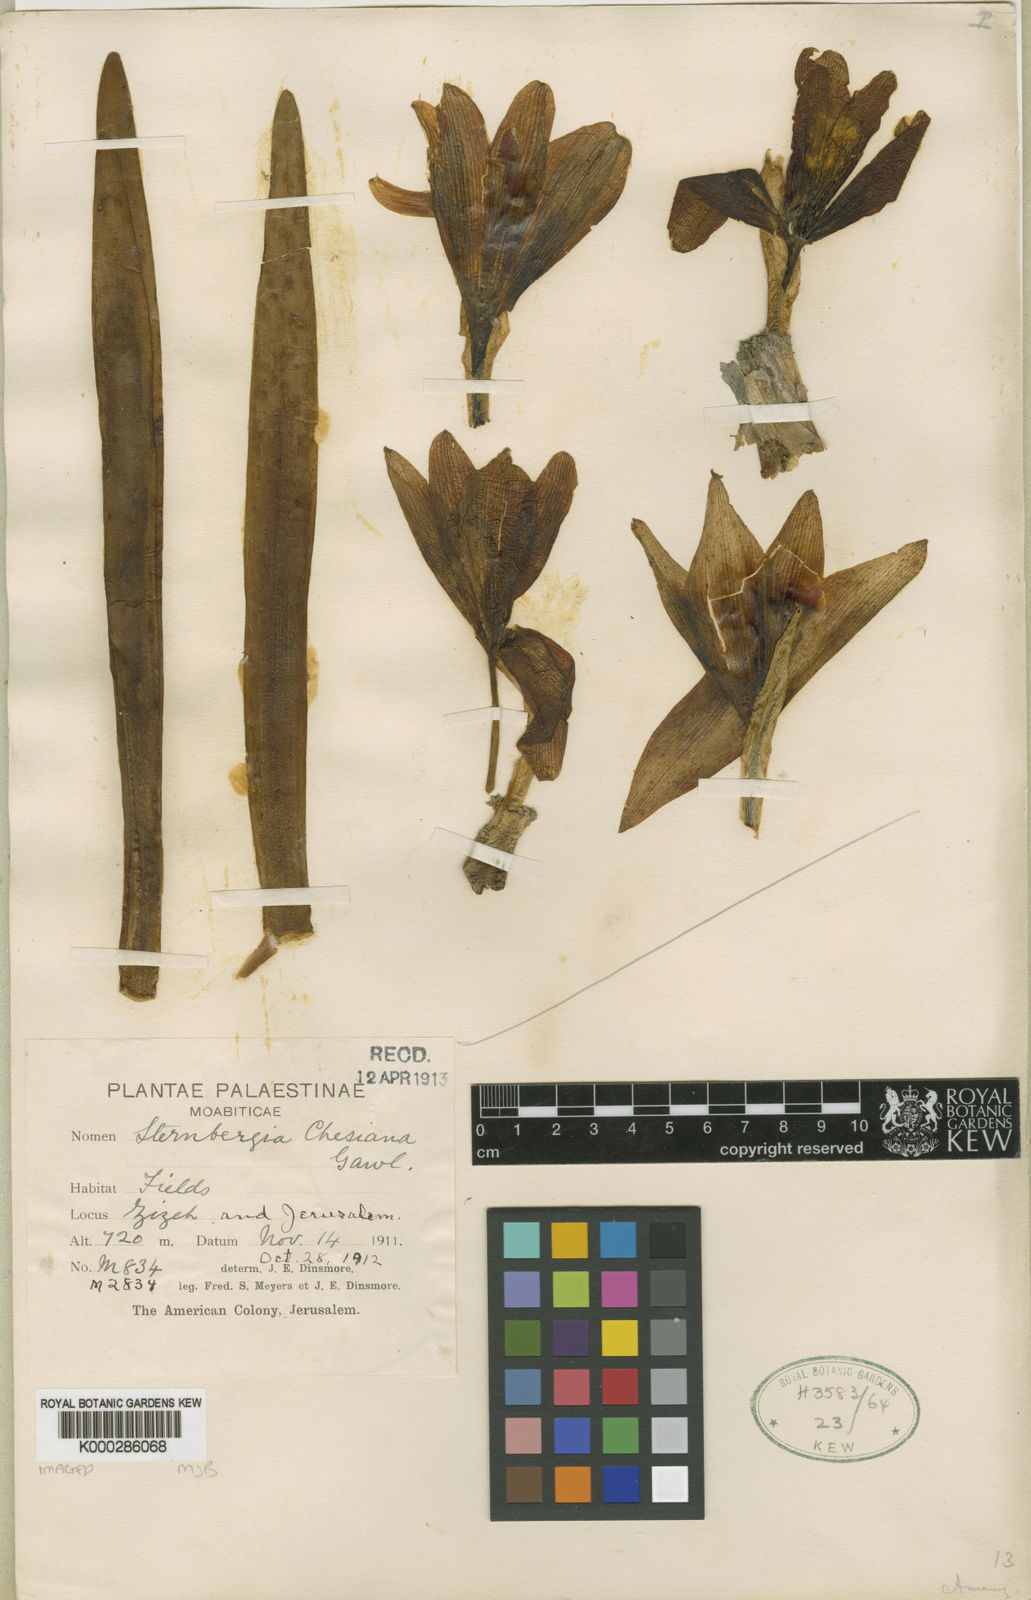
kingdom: Plantae
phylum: Tracheophyta
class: Liliopsida
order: Asparagales
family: Amaryllidaceae
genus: Sternbergia
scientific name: Sternbergia clusiana
